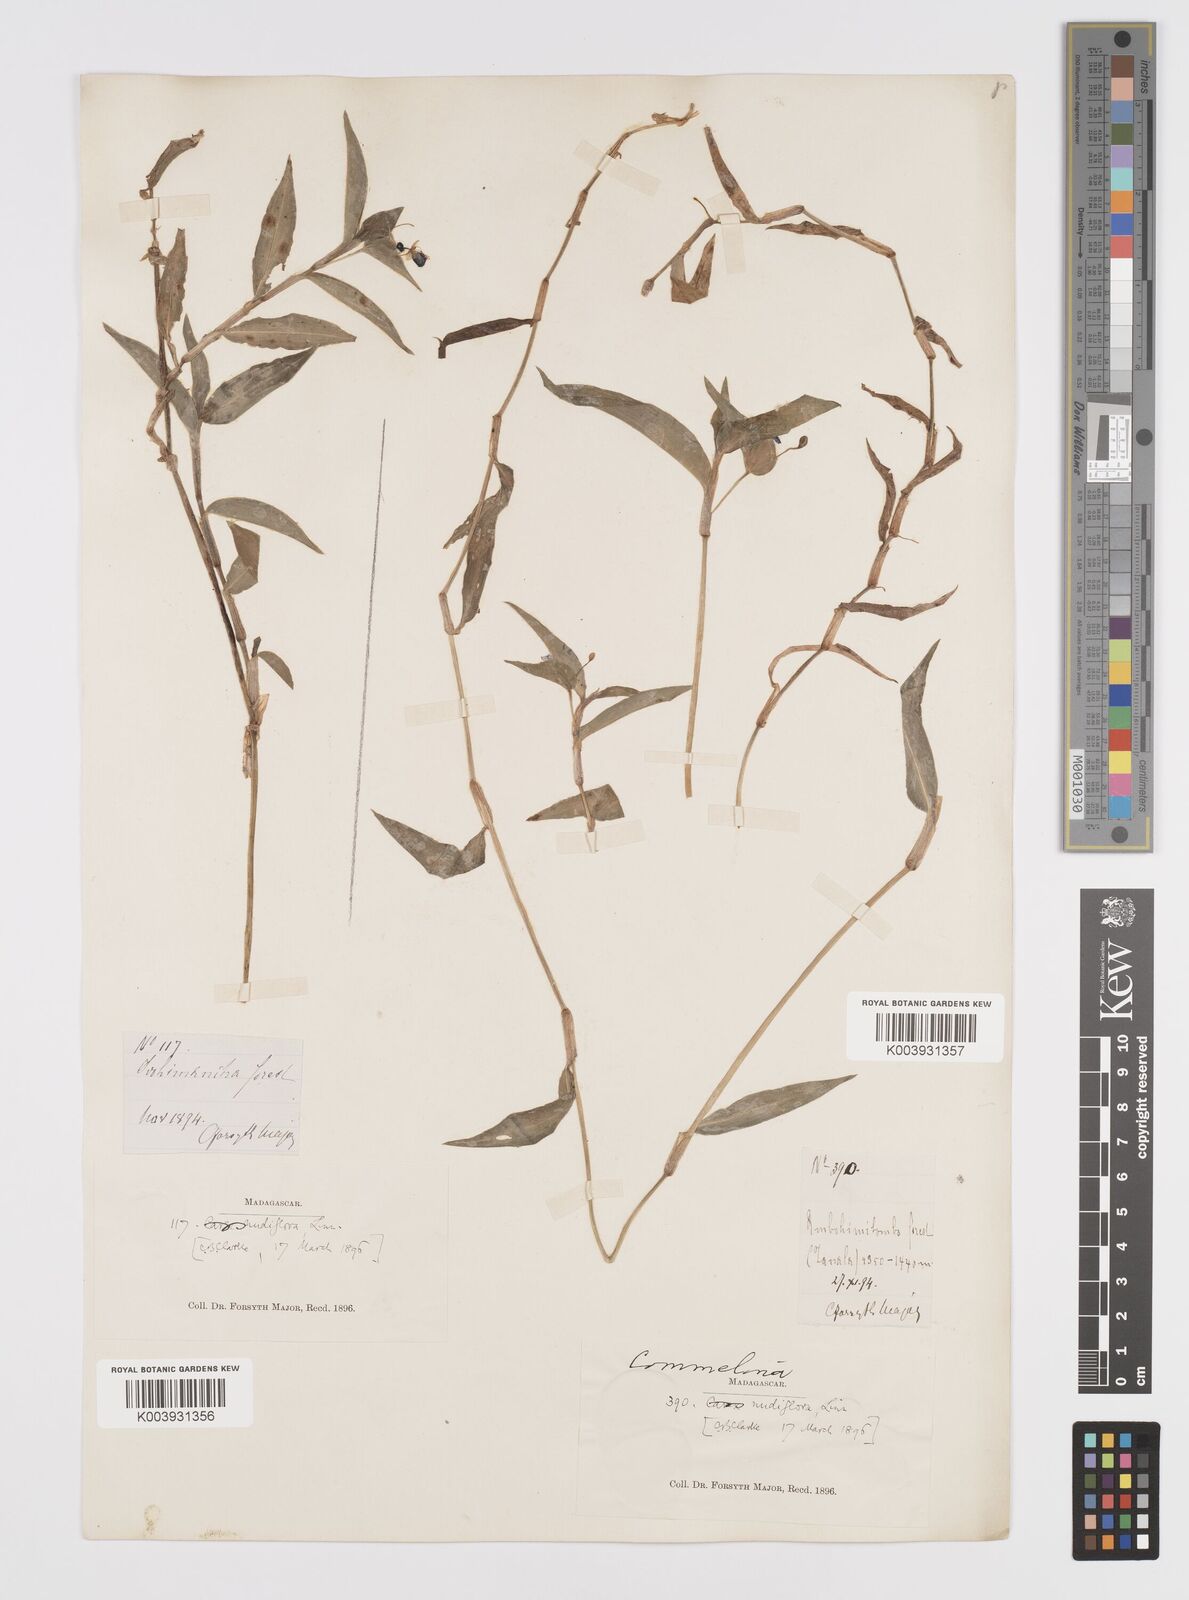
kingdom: Plantae
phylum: Tracheophyta
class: Liliopsida
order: Commelinales
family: Commelinaceae
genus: Murdannia
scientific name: Murdannia nudiflora
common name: Nakedstem dewflower
